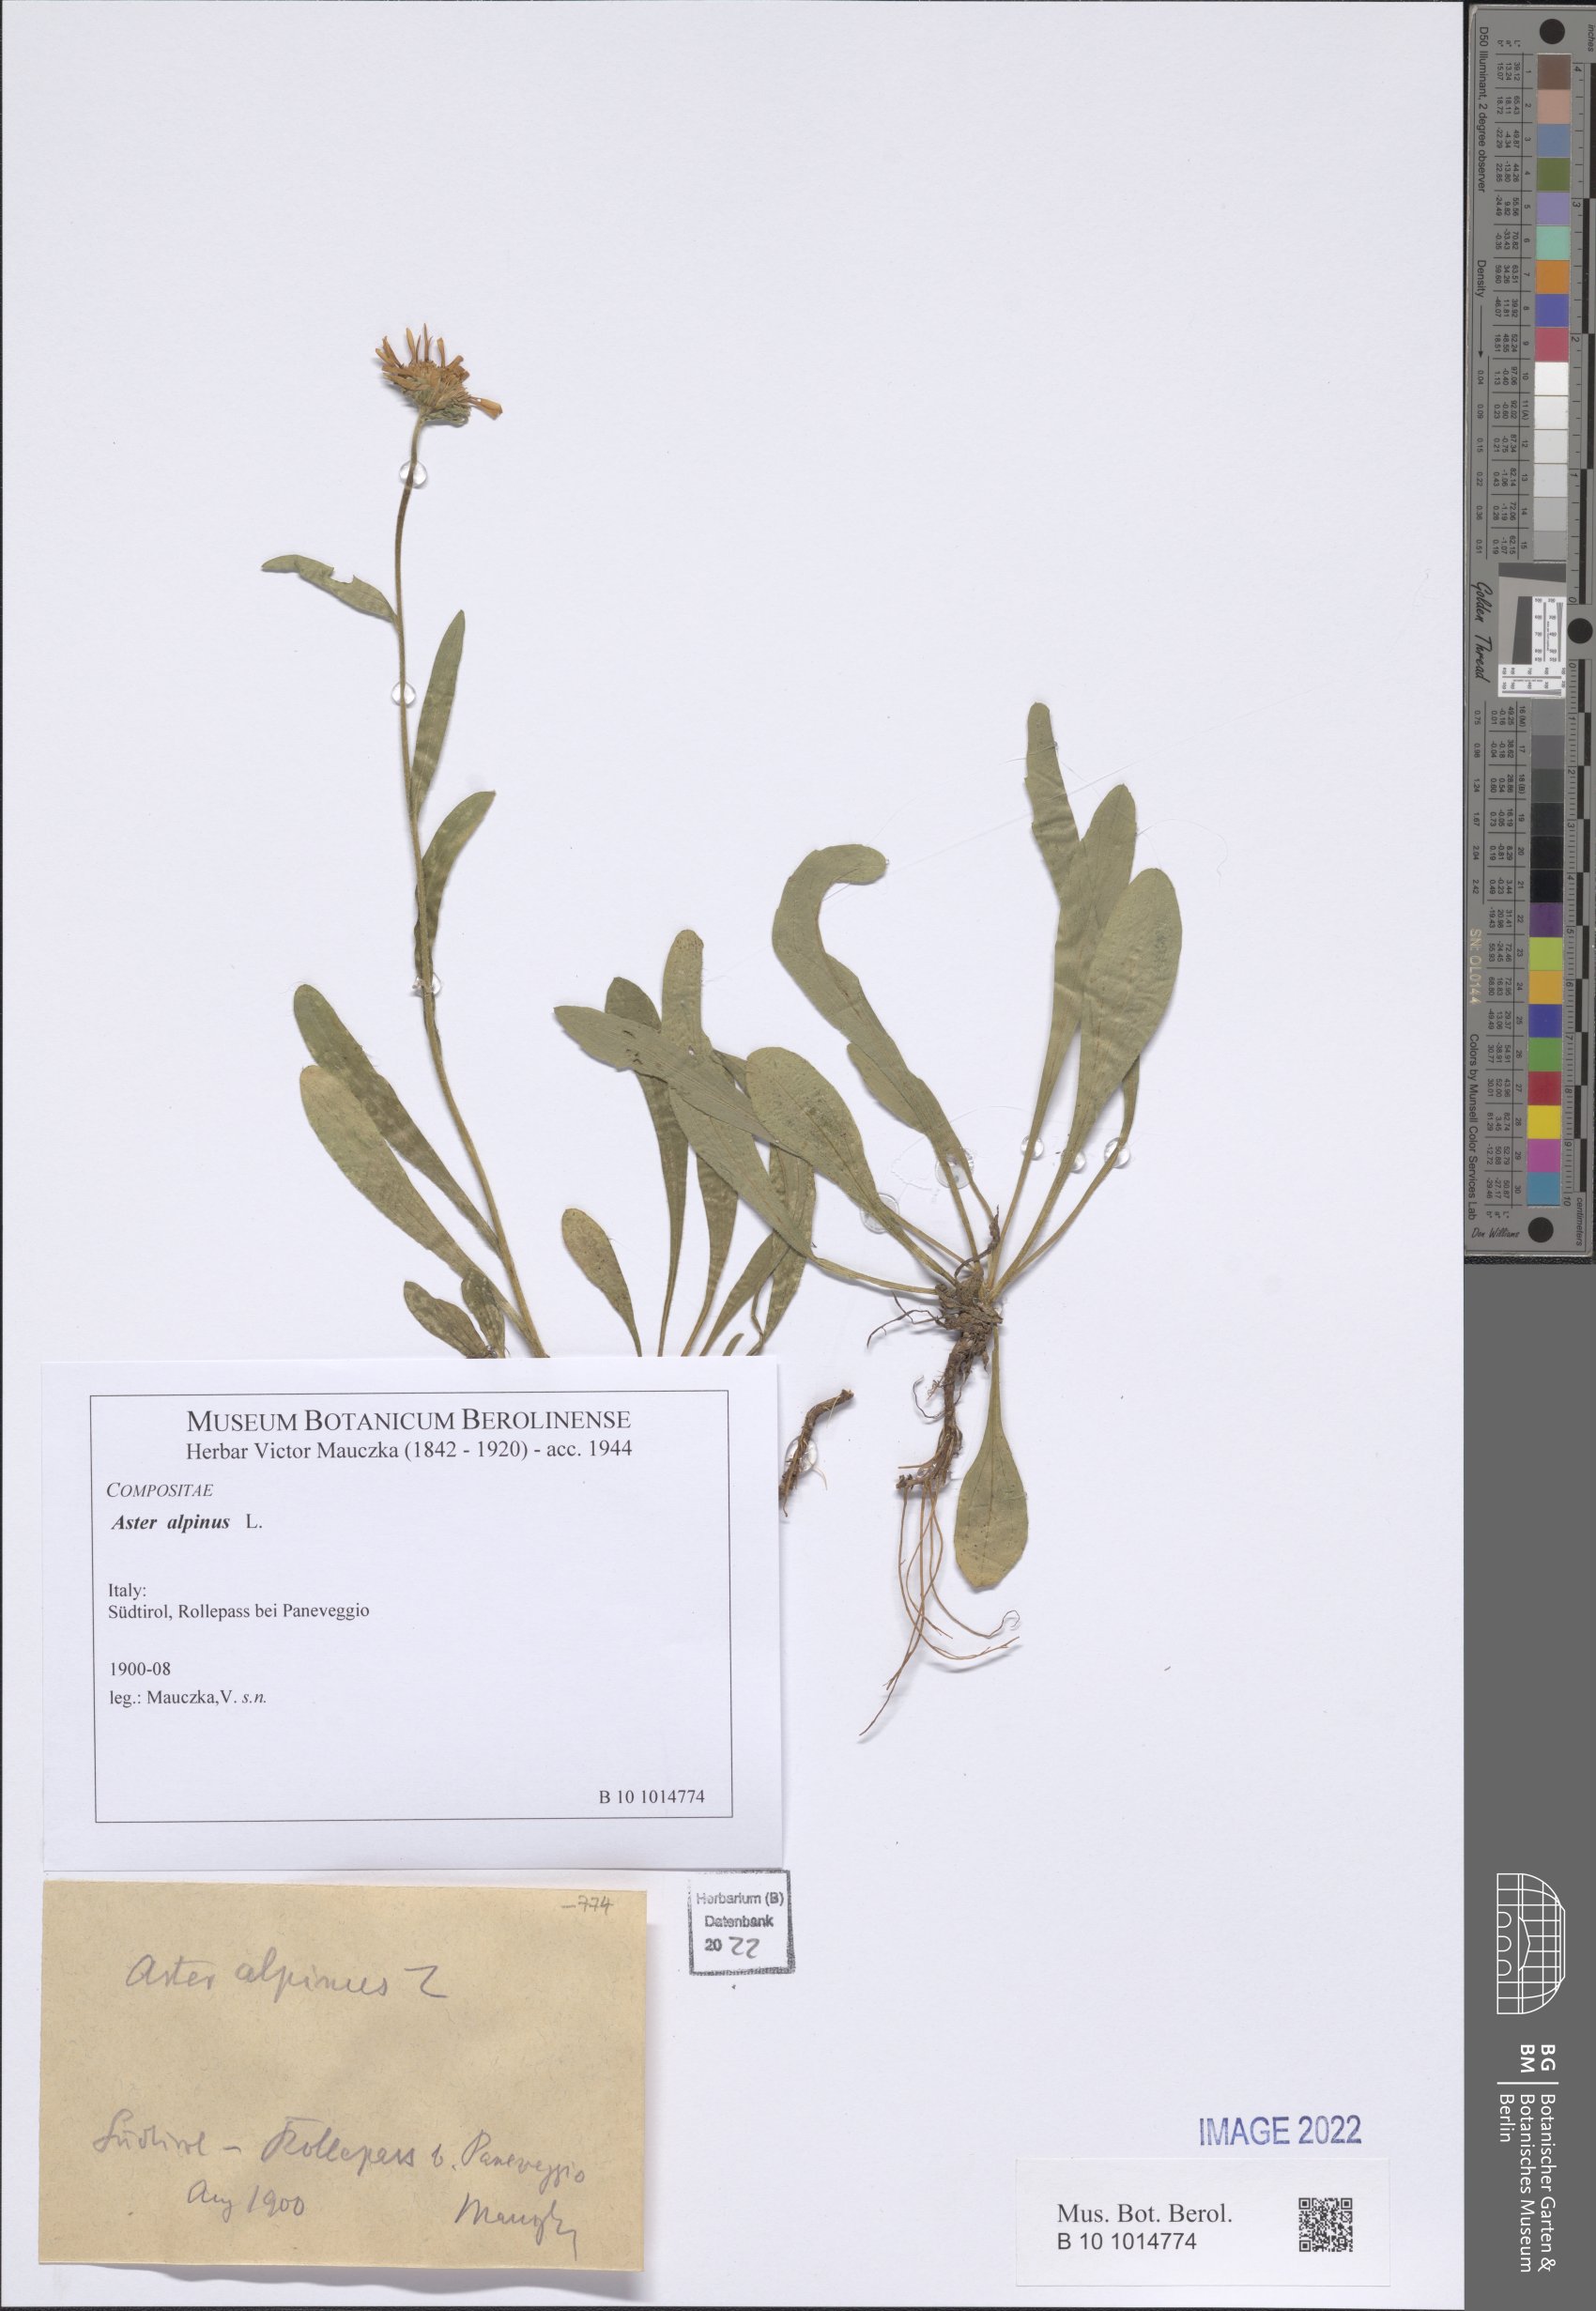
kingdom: Plantae
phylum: Tracheophyta
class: Magnoliopsida
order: Asterales
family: Asteraceae
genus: Aster
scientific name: Aster alpinus
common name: Alpine aster
